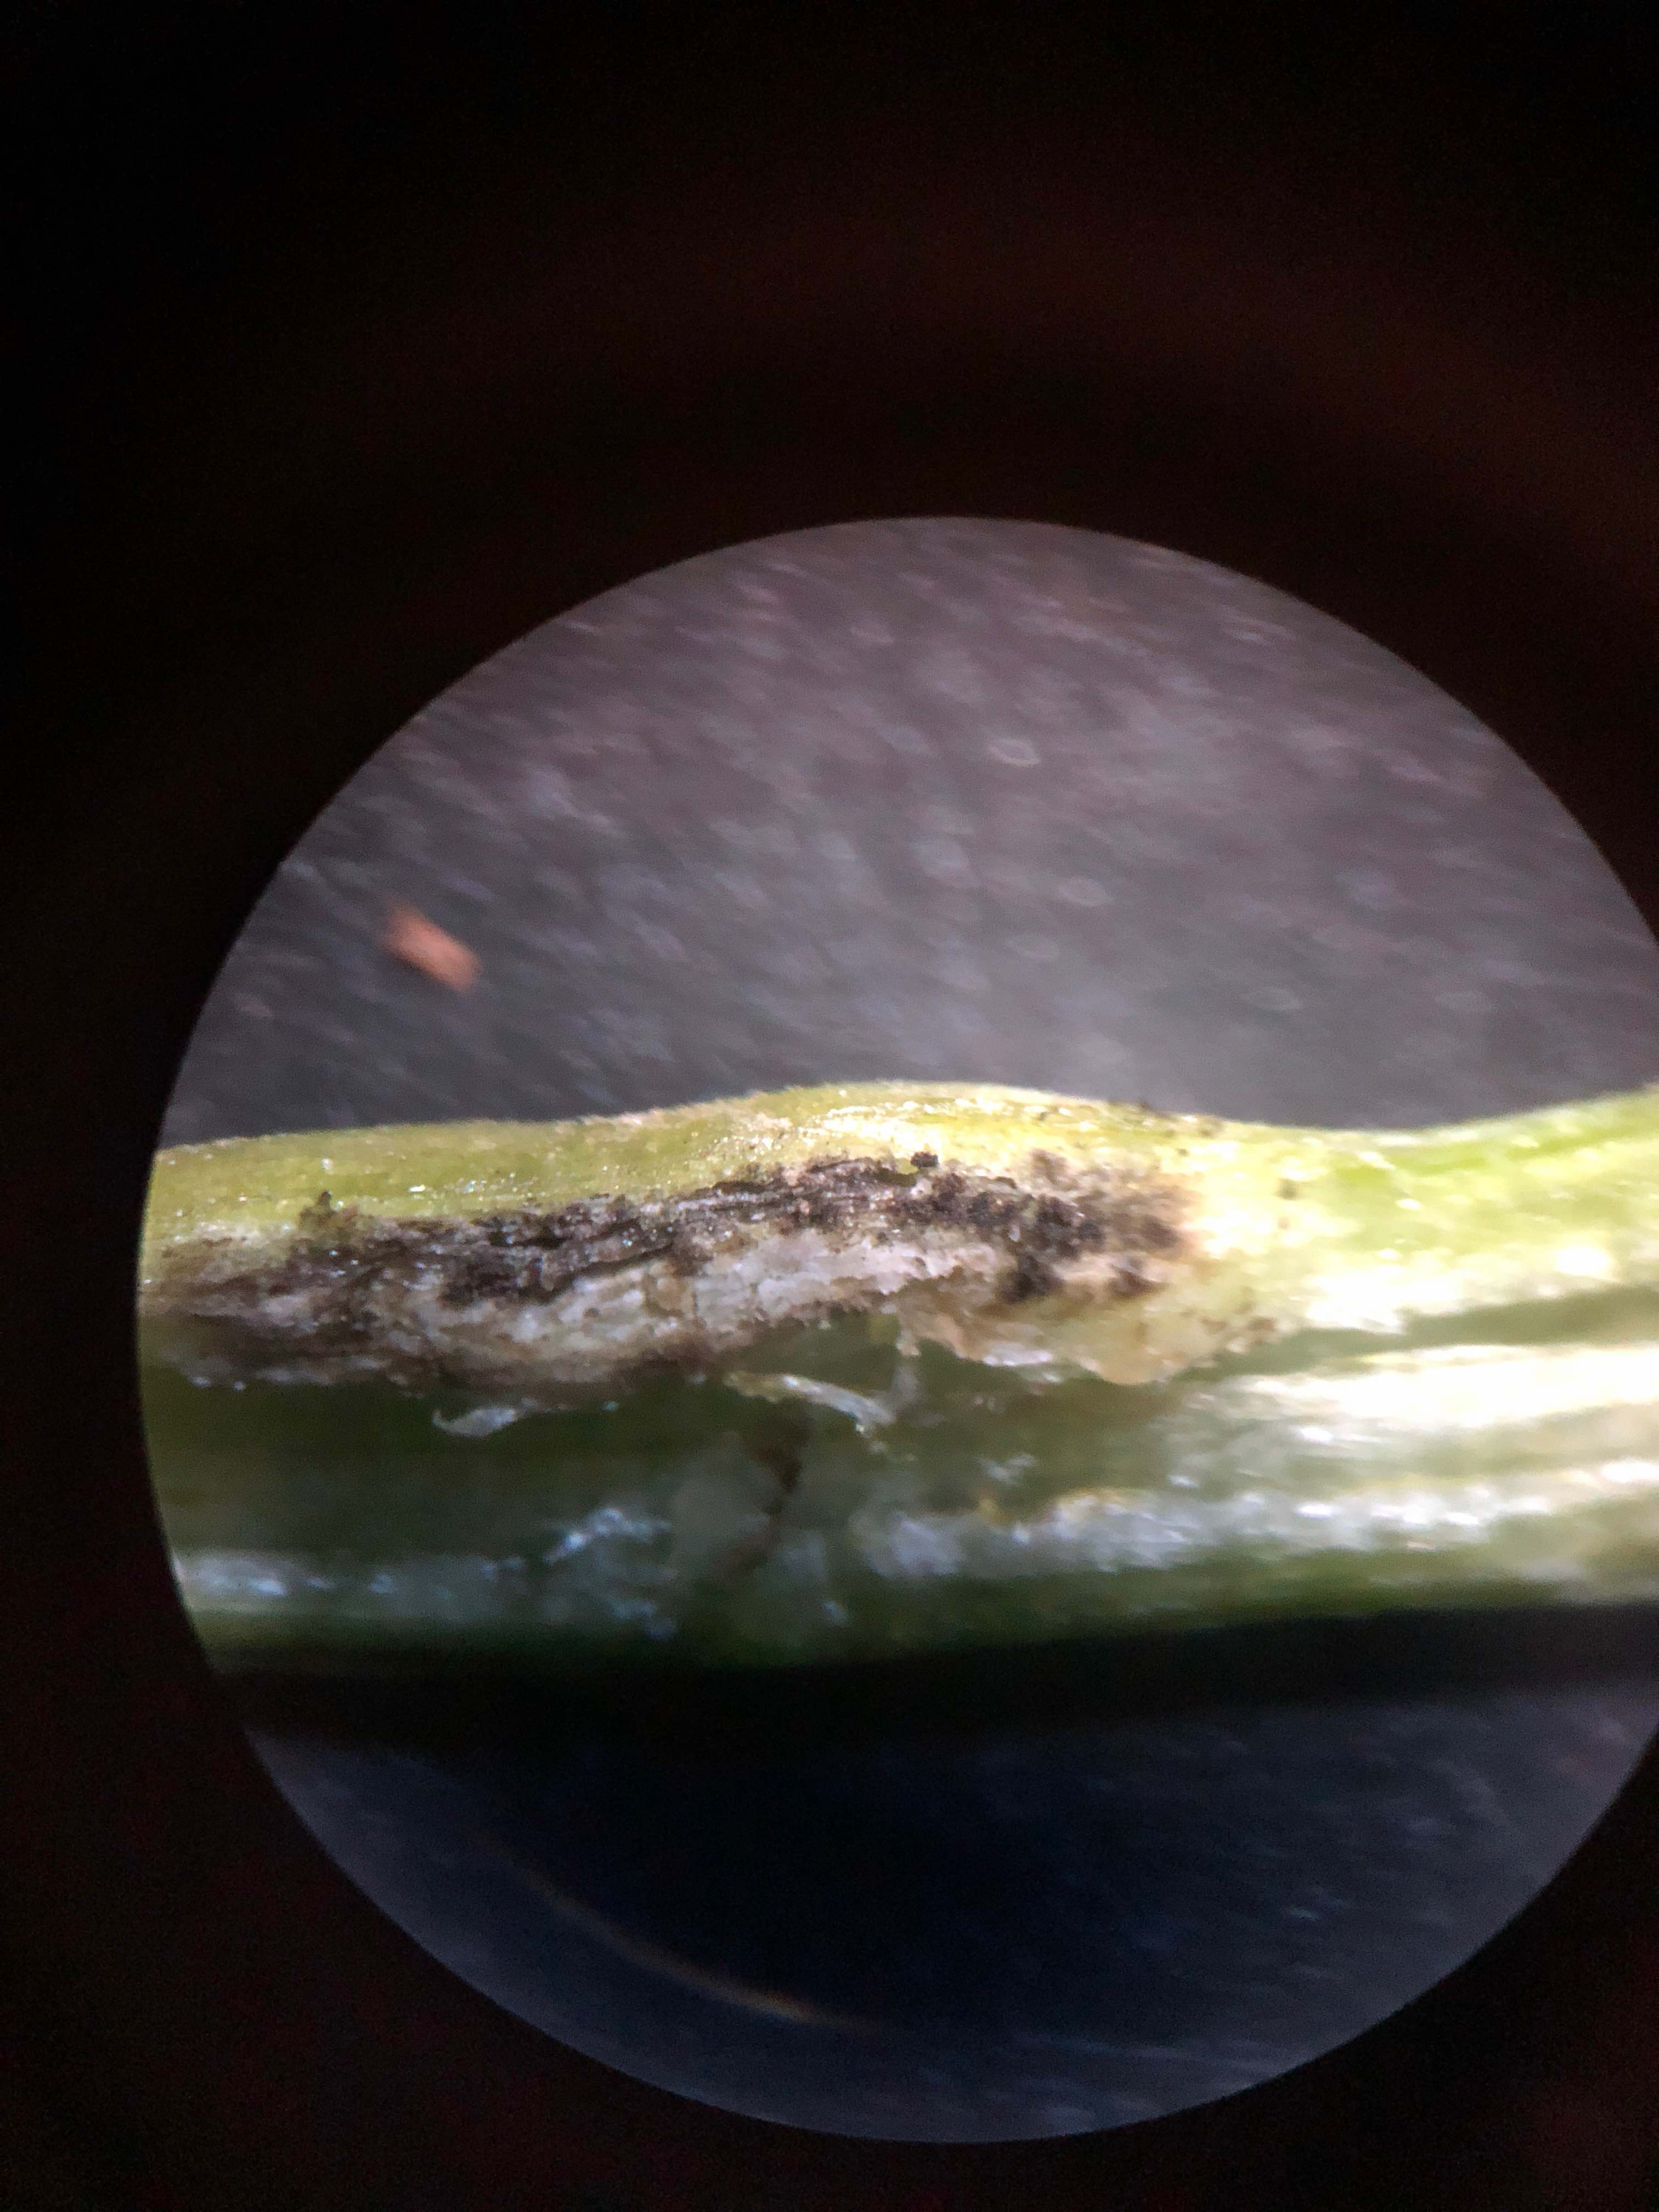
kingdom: Fungi
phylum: Basidiomycota
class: Ustilaginomycetes
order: Urocystidales
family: Urocystidaceae
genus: Urocystis
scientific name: Urocystis eranthidis
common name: erantis-brand
